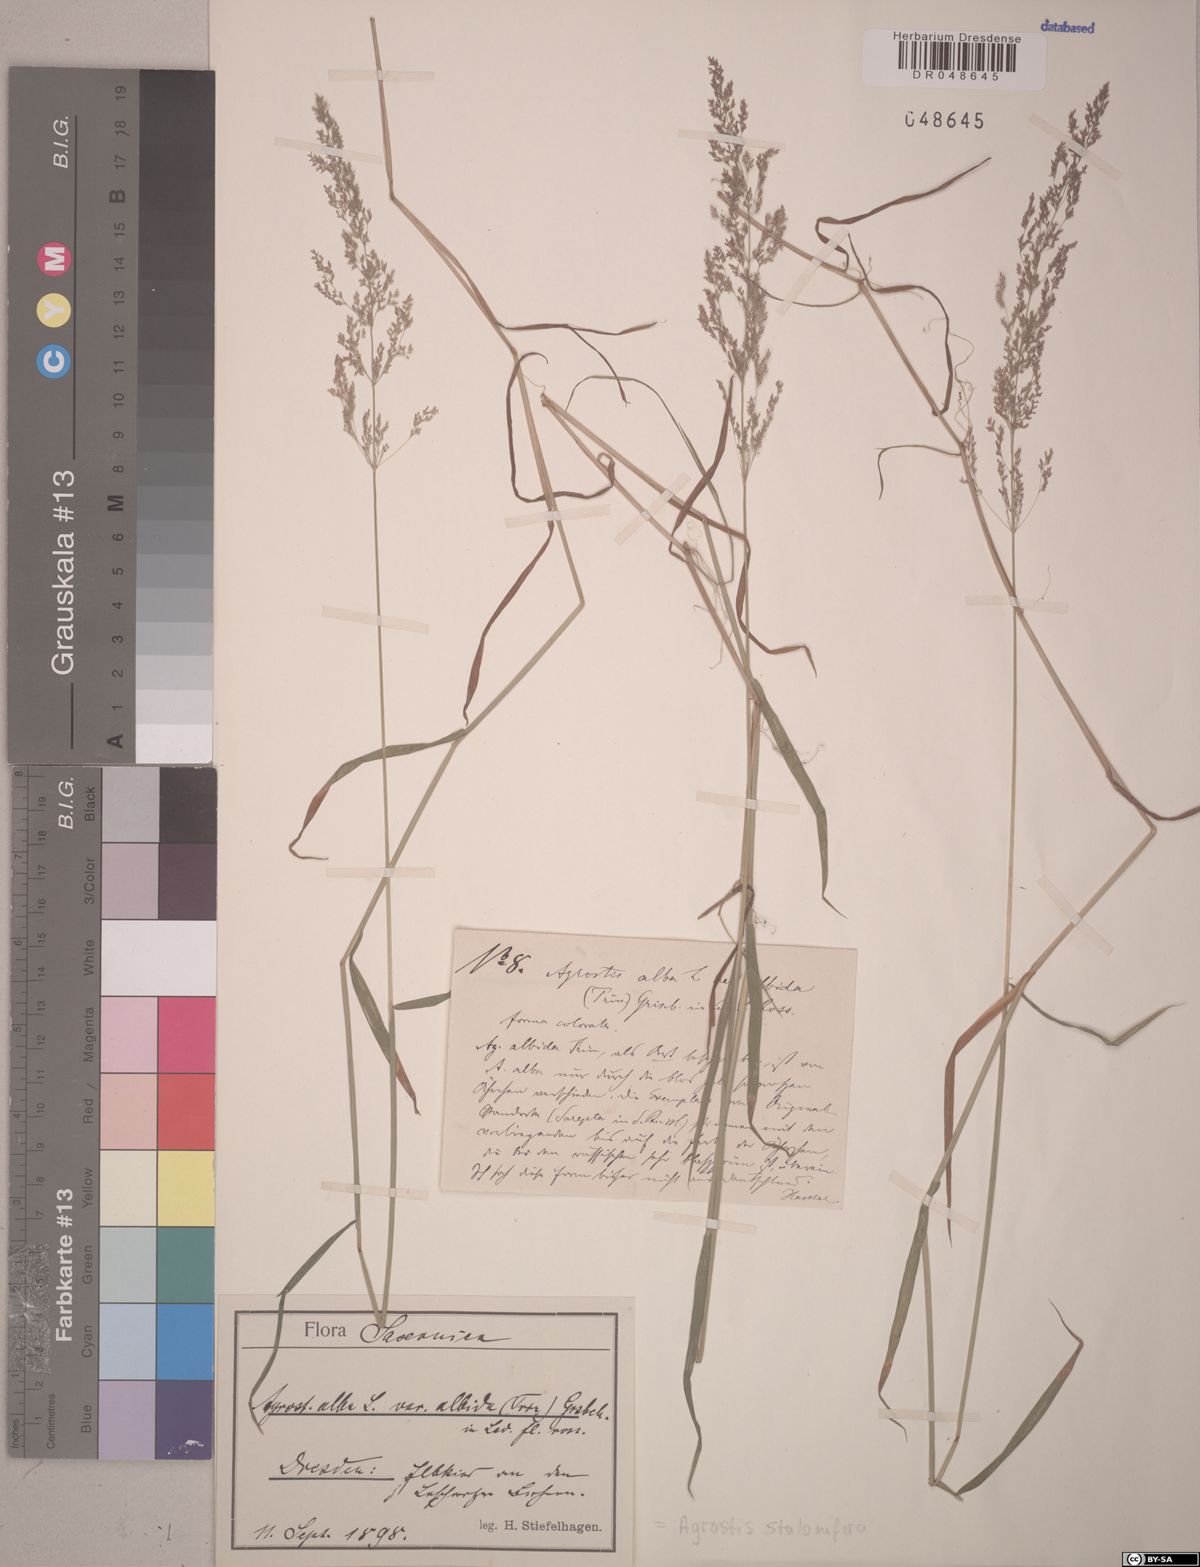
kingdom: Plantae
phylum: Tracheophyta
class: Liliopsida
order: Poales
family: Poaceae
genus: Agrostis
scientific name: Agrostis stolonifera
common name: Creeping bentgrass
